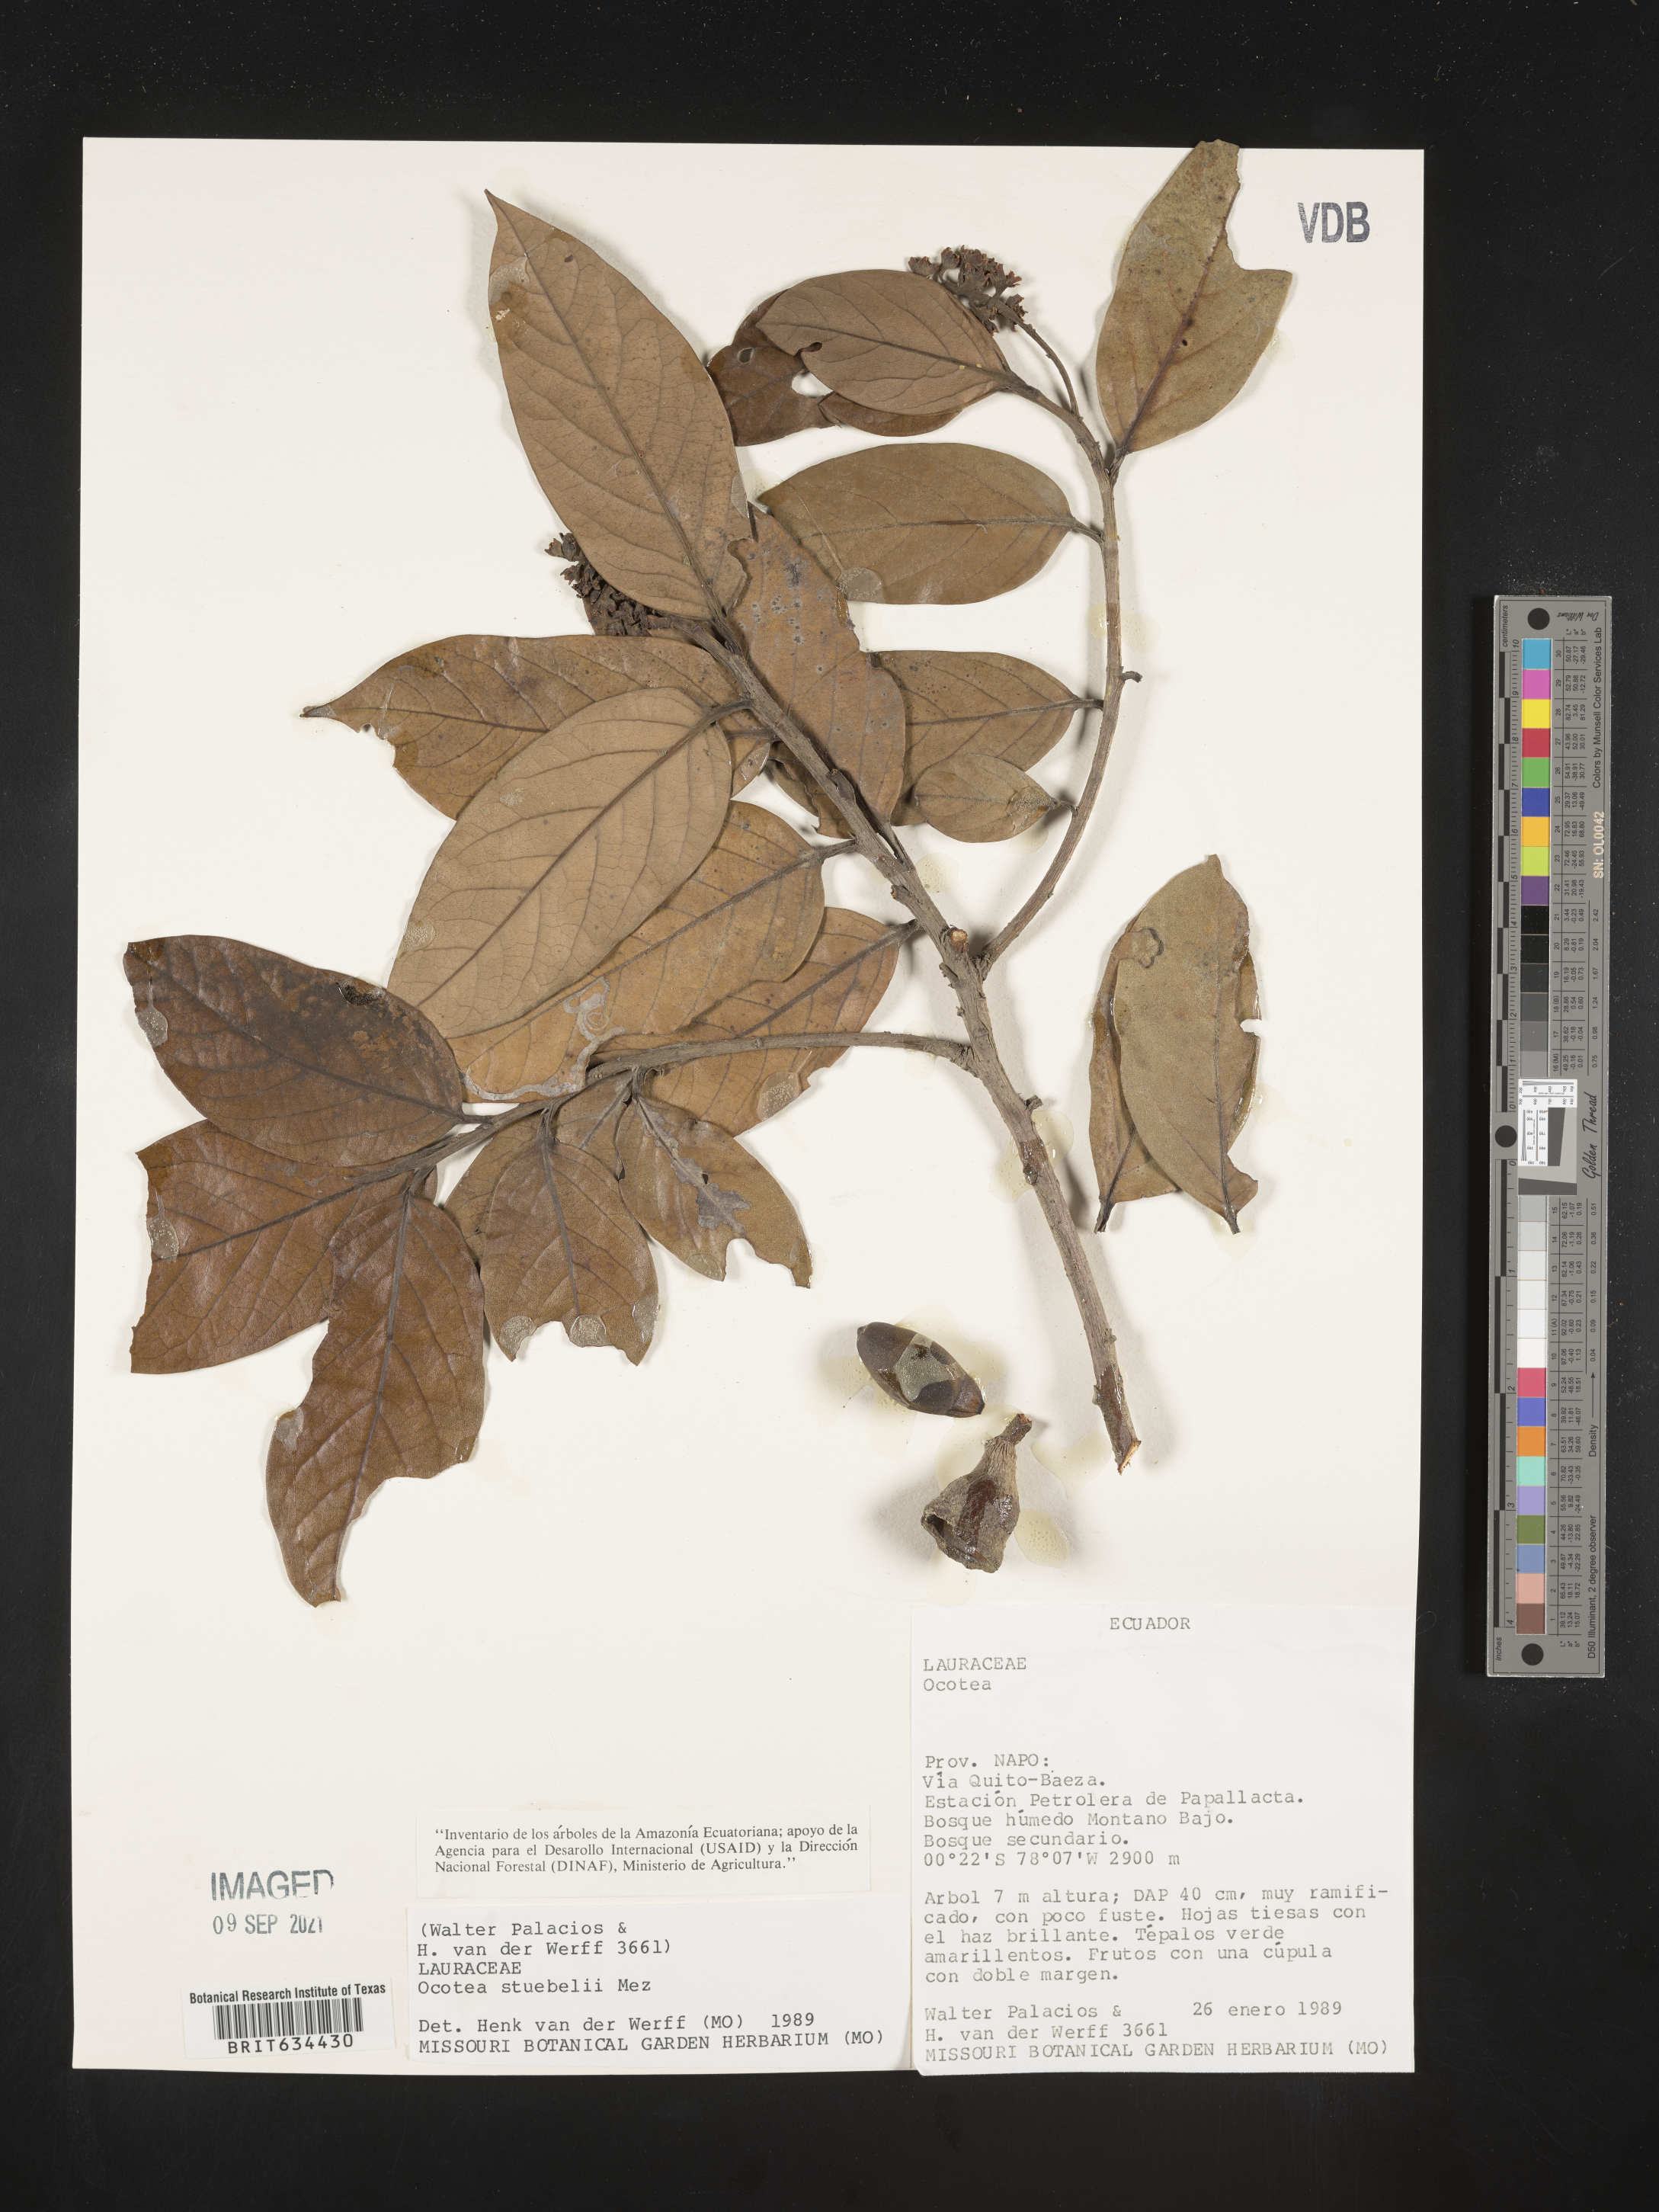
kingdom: Plantae
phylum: Tracheophyta
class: Magnoliopsida
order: Laurales
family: Lauraceae
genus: Ocotea
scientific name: Ocotea
